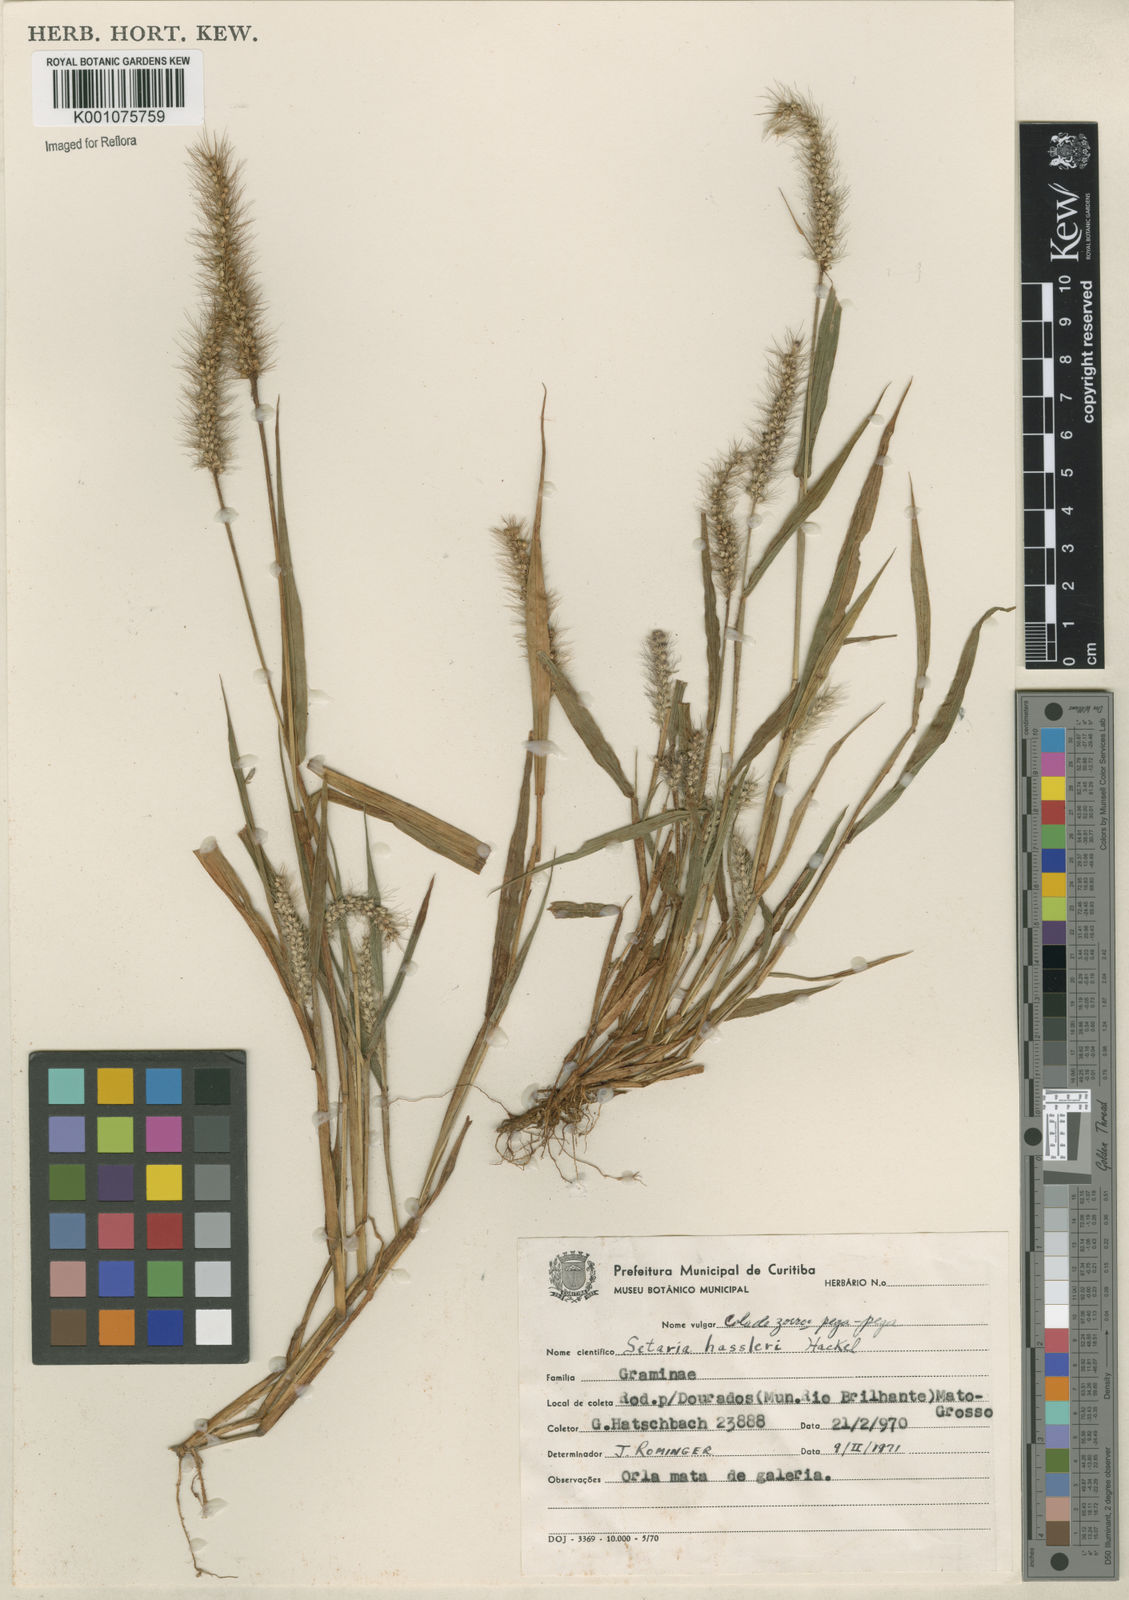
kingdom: Plantae
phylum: Tracheophyta
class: Liliopsida
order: Poales
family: Poaceae
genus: Setaria
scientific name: Setaria hassleri
